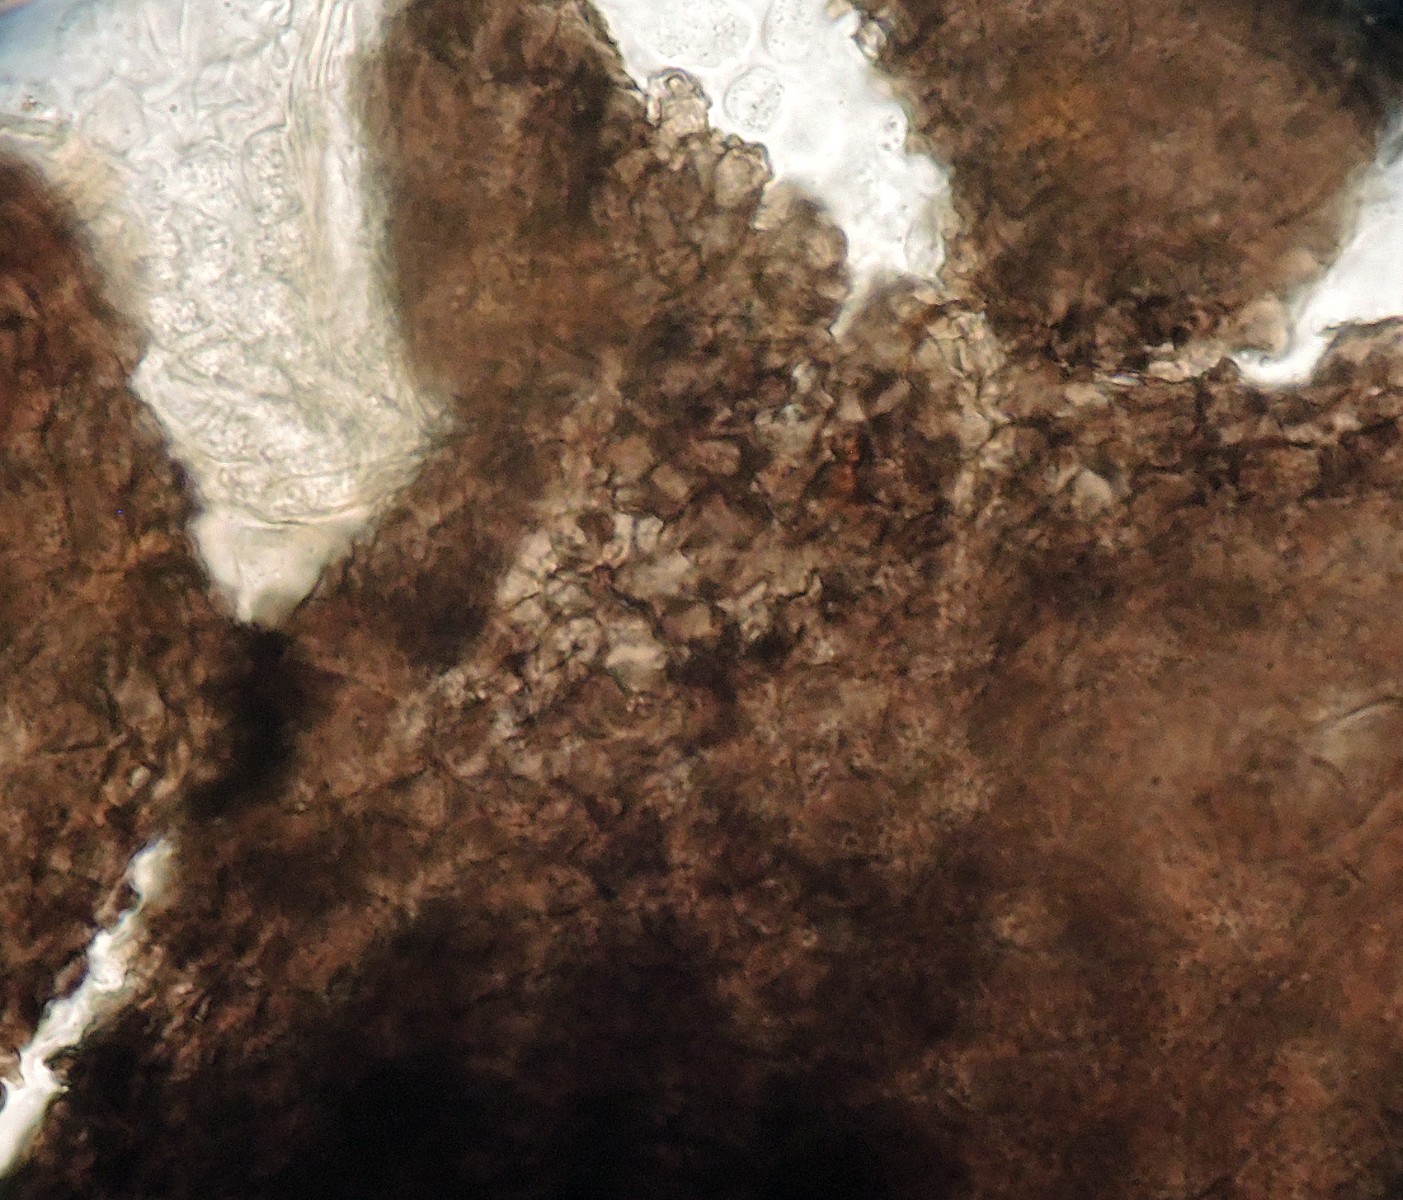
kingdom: Fungi
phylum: Ascomycota
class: Dothideomycetes
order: Dothideales
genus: Pleostigma
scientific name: Pleostigma jungermannicola
